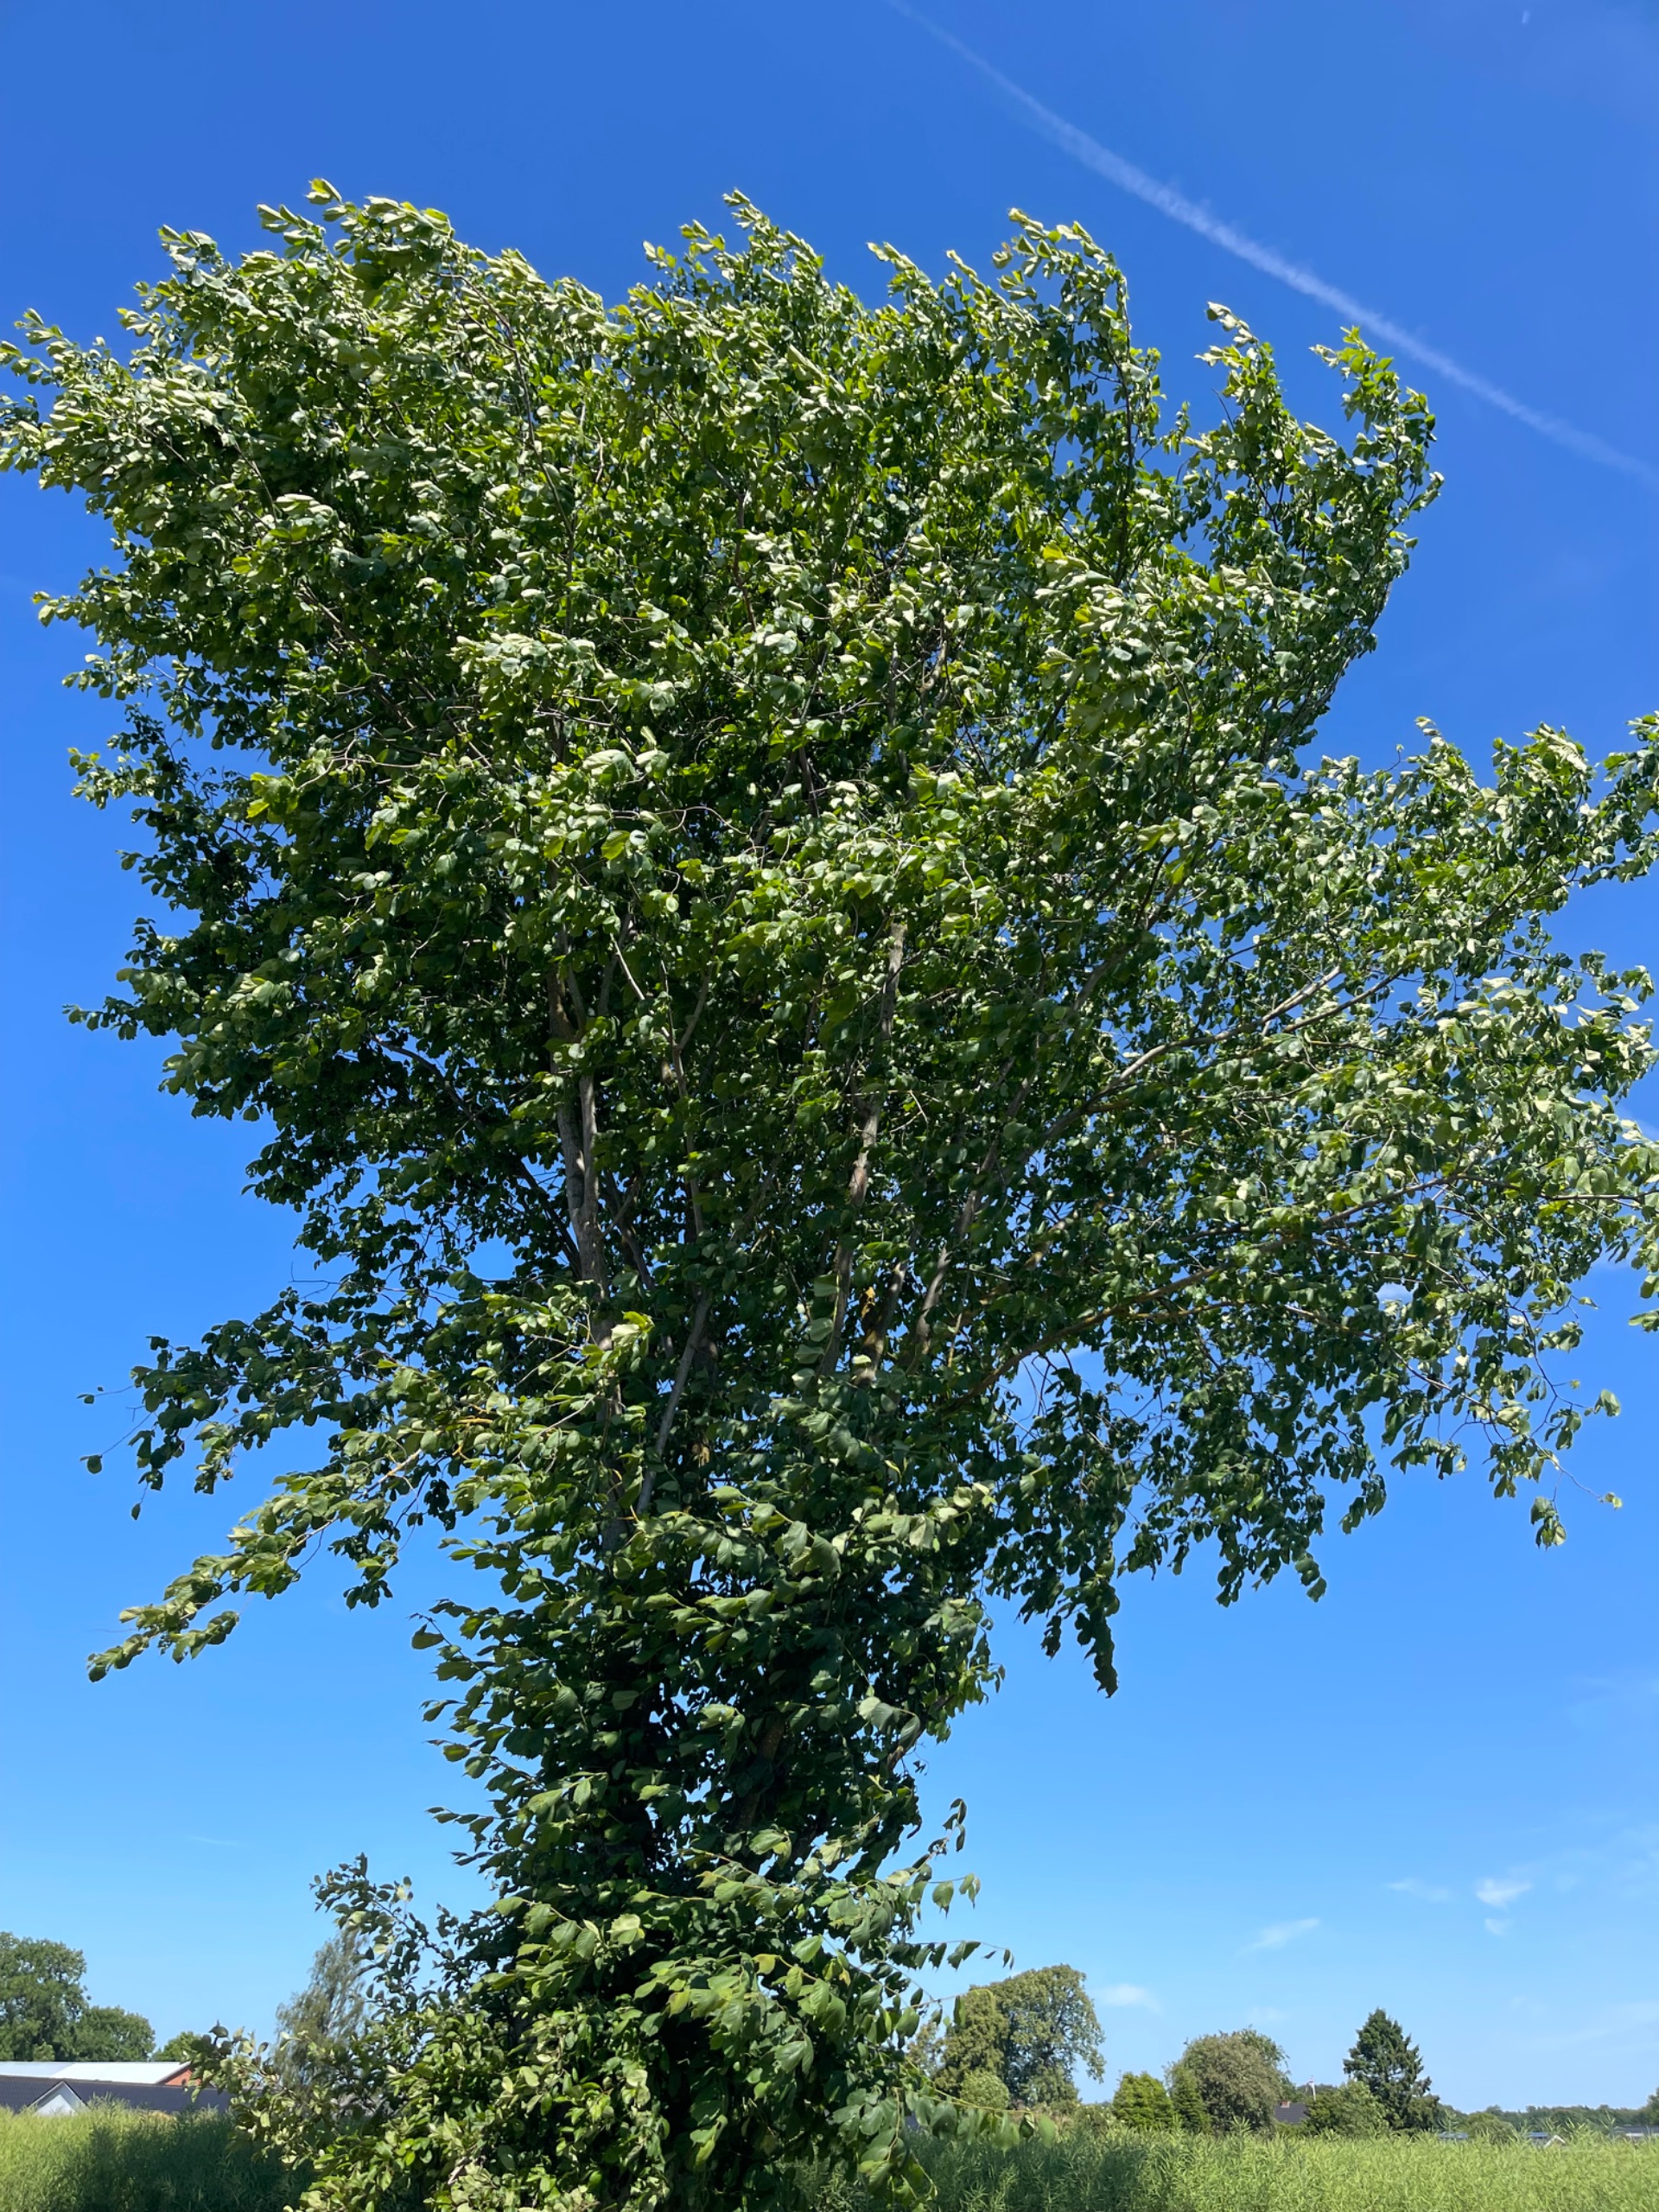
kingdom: Plantae
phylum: Tracheophyta
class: Magnoliopsida
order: Rosales
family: Ulmaceae
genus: Ulmus
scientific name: Ulmus glabra
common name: Skov-elm/storbladet elm
